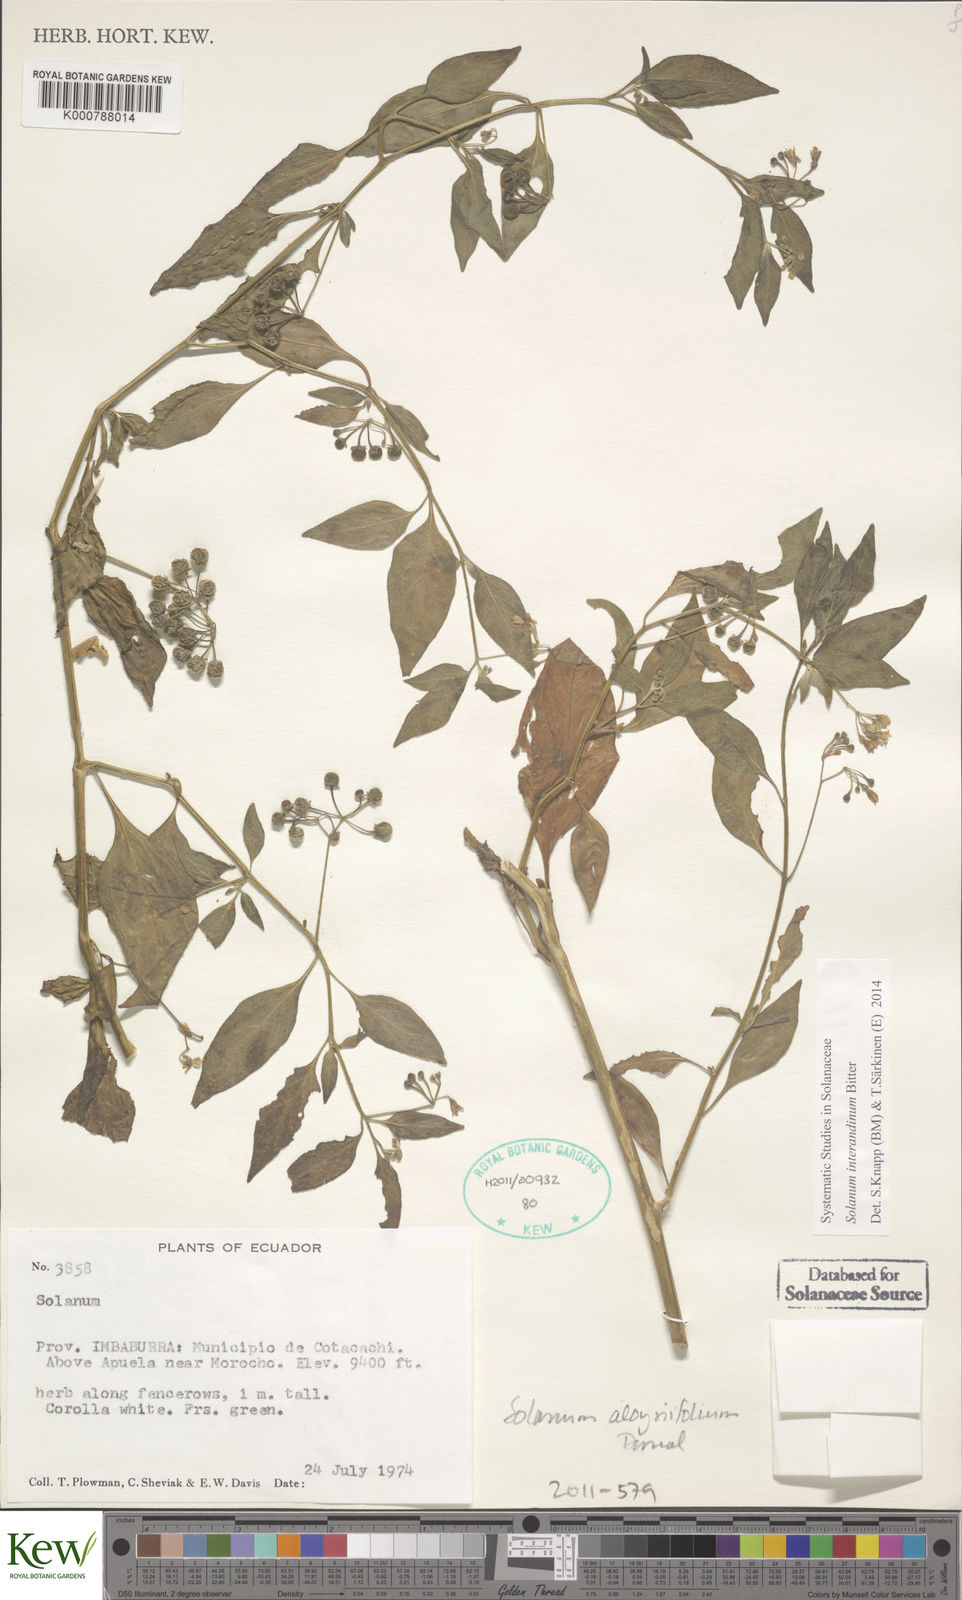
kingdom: Plantae
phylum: Tracheophyta
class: Magnoliopsida
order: Solanales
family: Solanaceae
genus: Solanum
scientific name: Solanum
